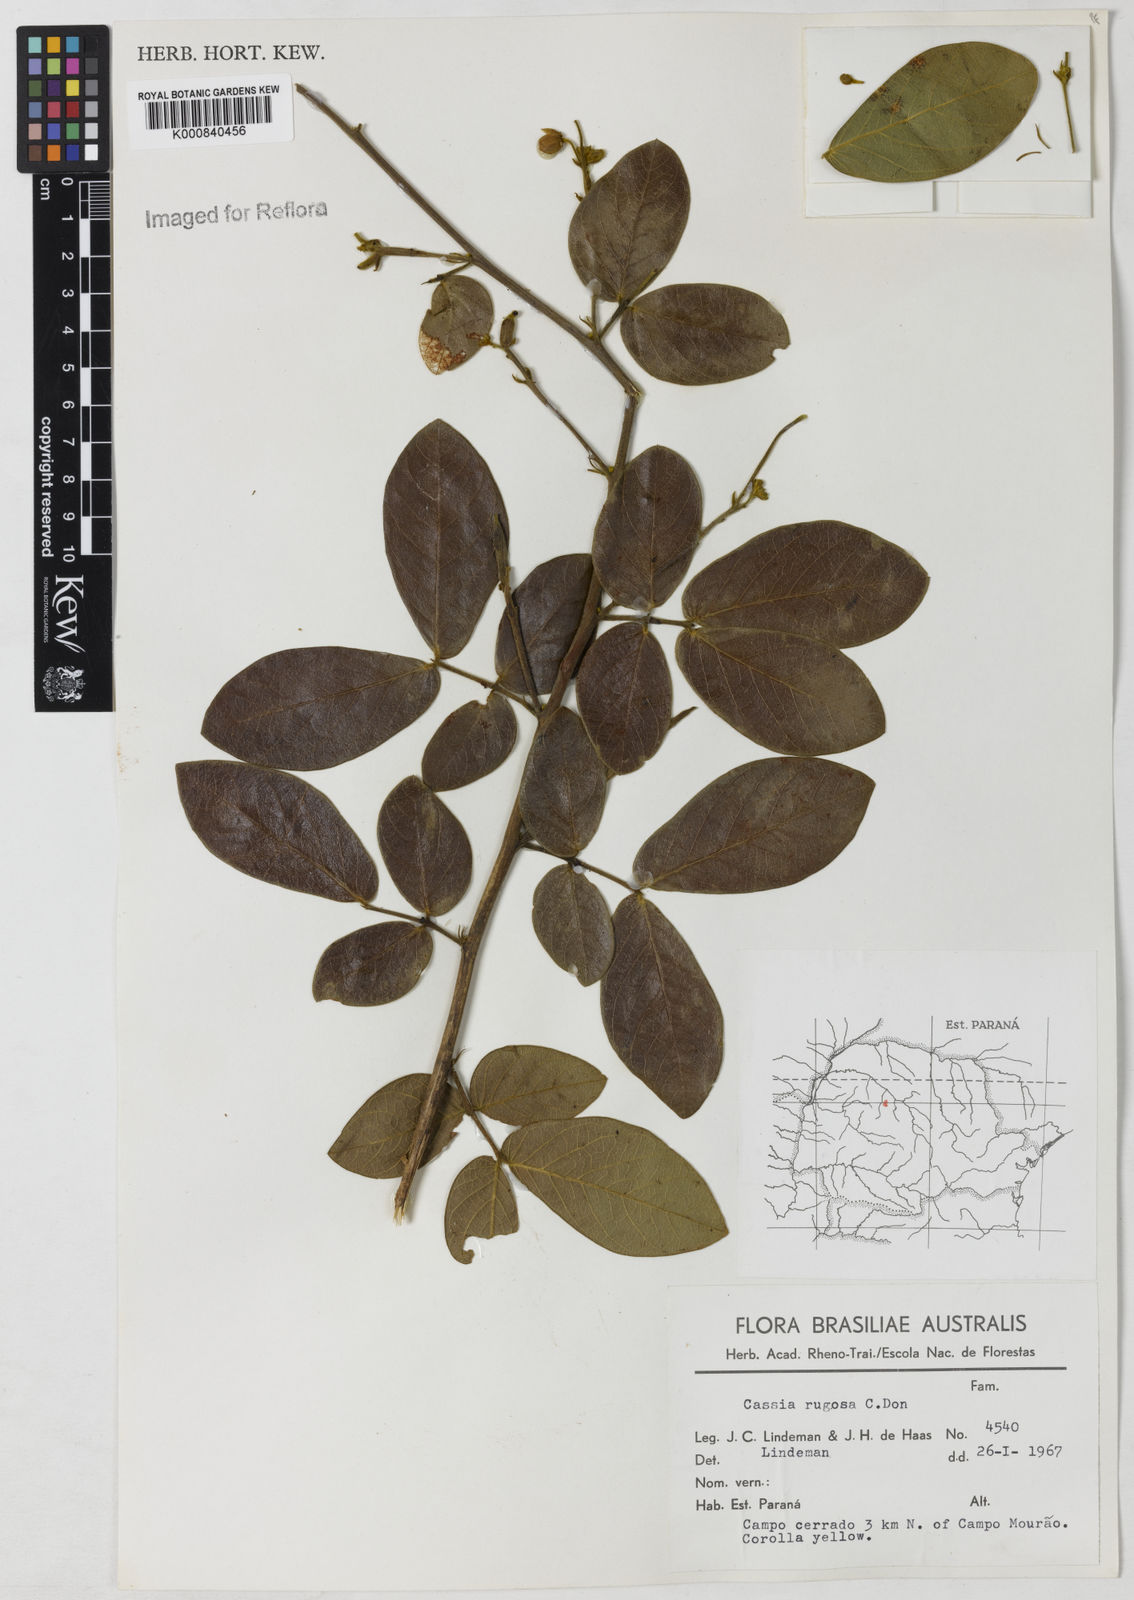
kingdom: Plantae
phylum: Tracheophyta
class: Magnoliopsida
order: Fabales
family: Fabaceae
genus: Senna
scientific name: Senna rugosa
